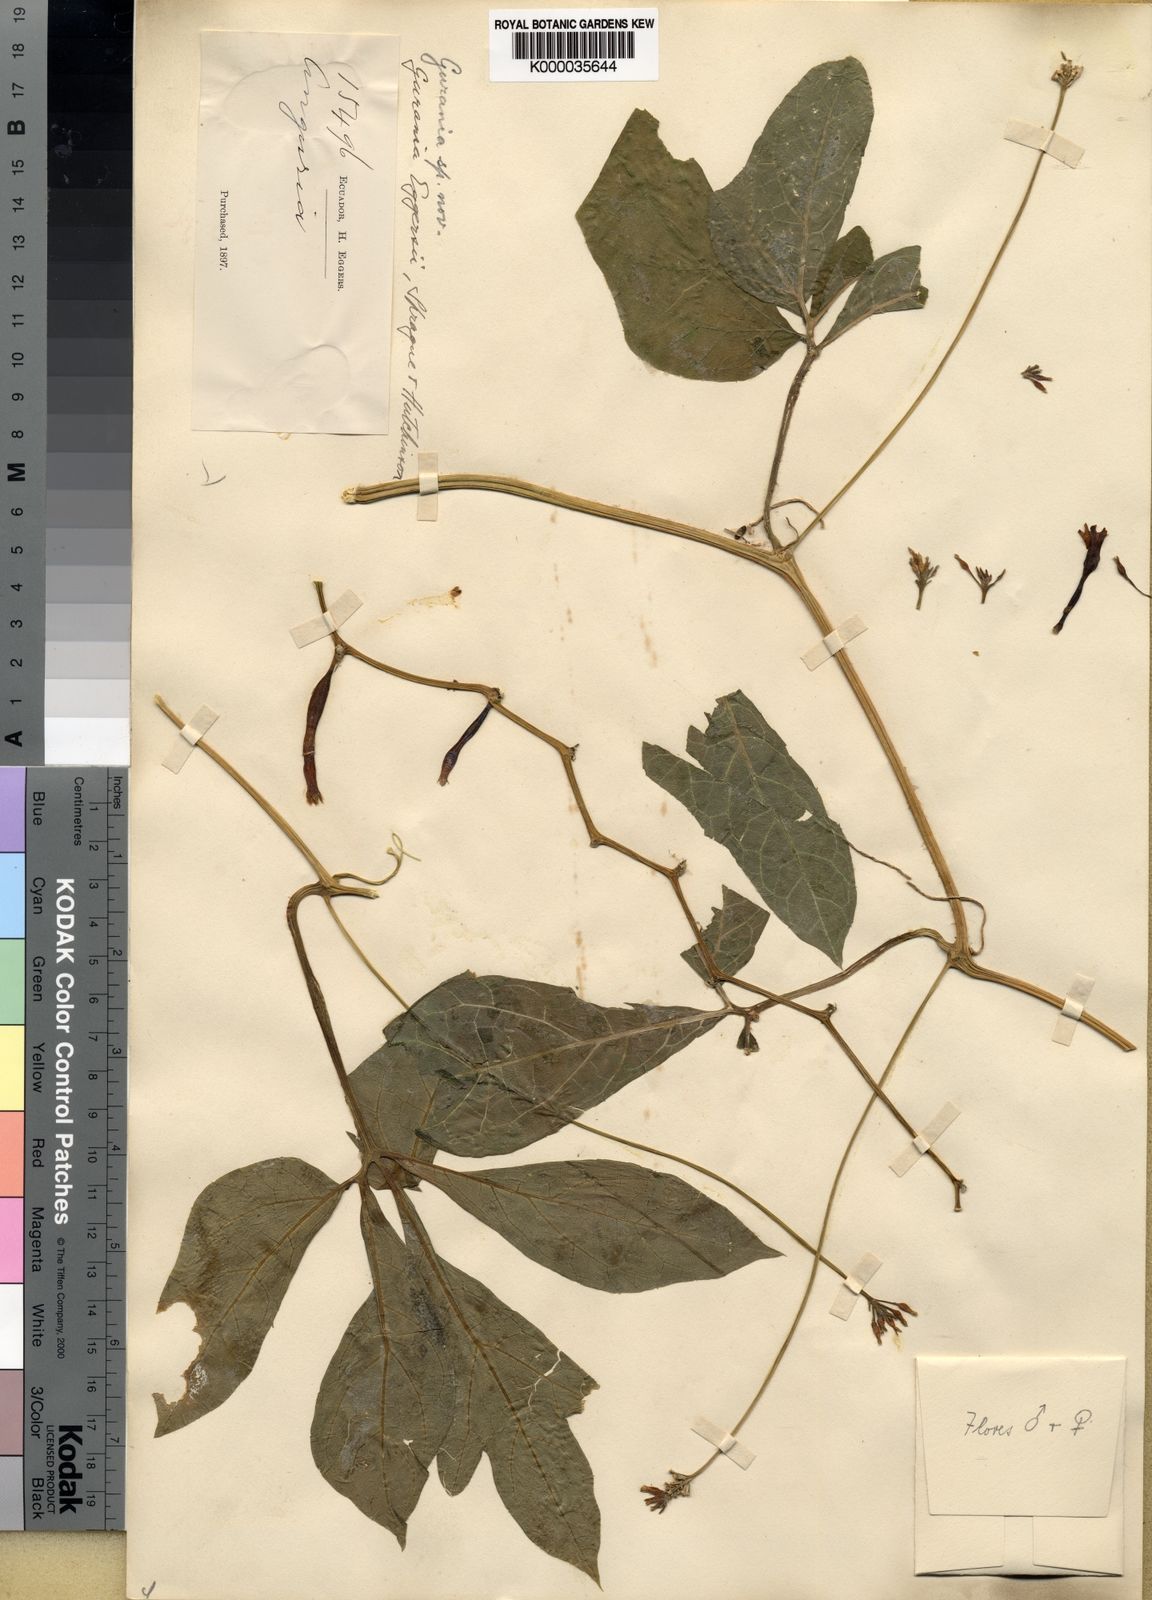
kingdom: Plantae
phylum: Tracheophyta
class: Magnoliopsida
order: Cucurbitales
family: Cucurbitaceae
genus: Gurania
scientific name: Gurania pedata
